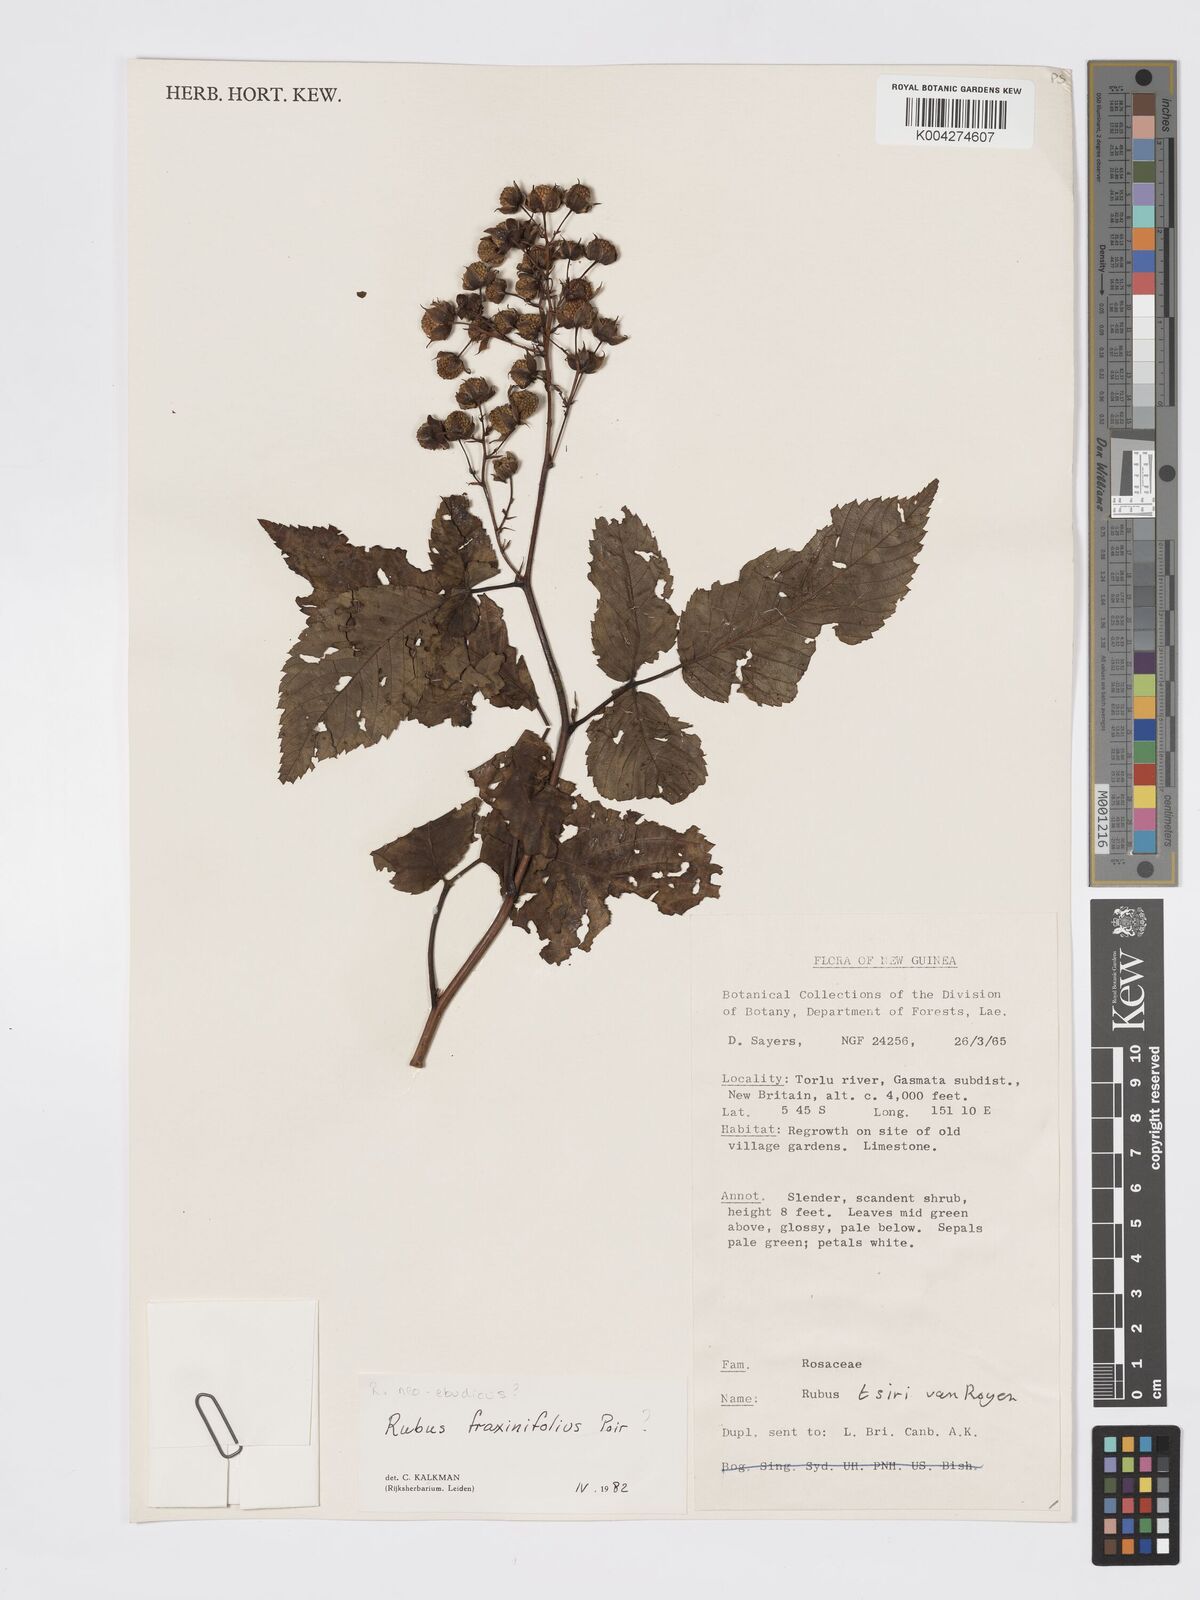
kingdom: Plantae
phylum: Tracheophyta
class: Magnoliopsida
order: Rosales
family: Rosaceae
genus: Rubus
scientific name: Rubus fraxinifolius
